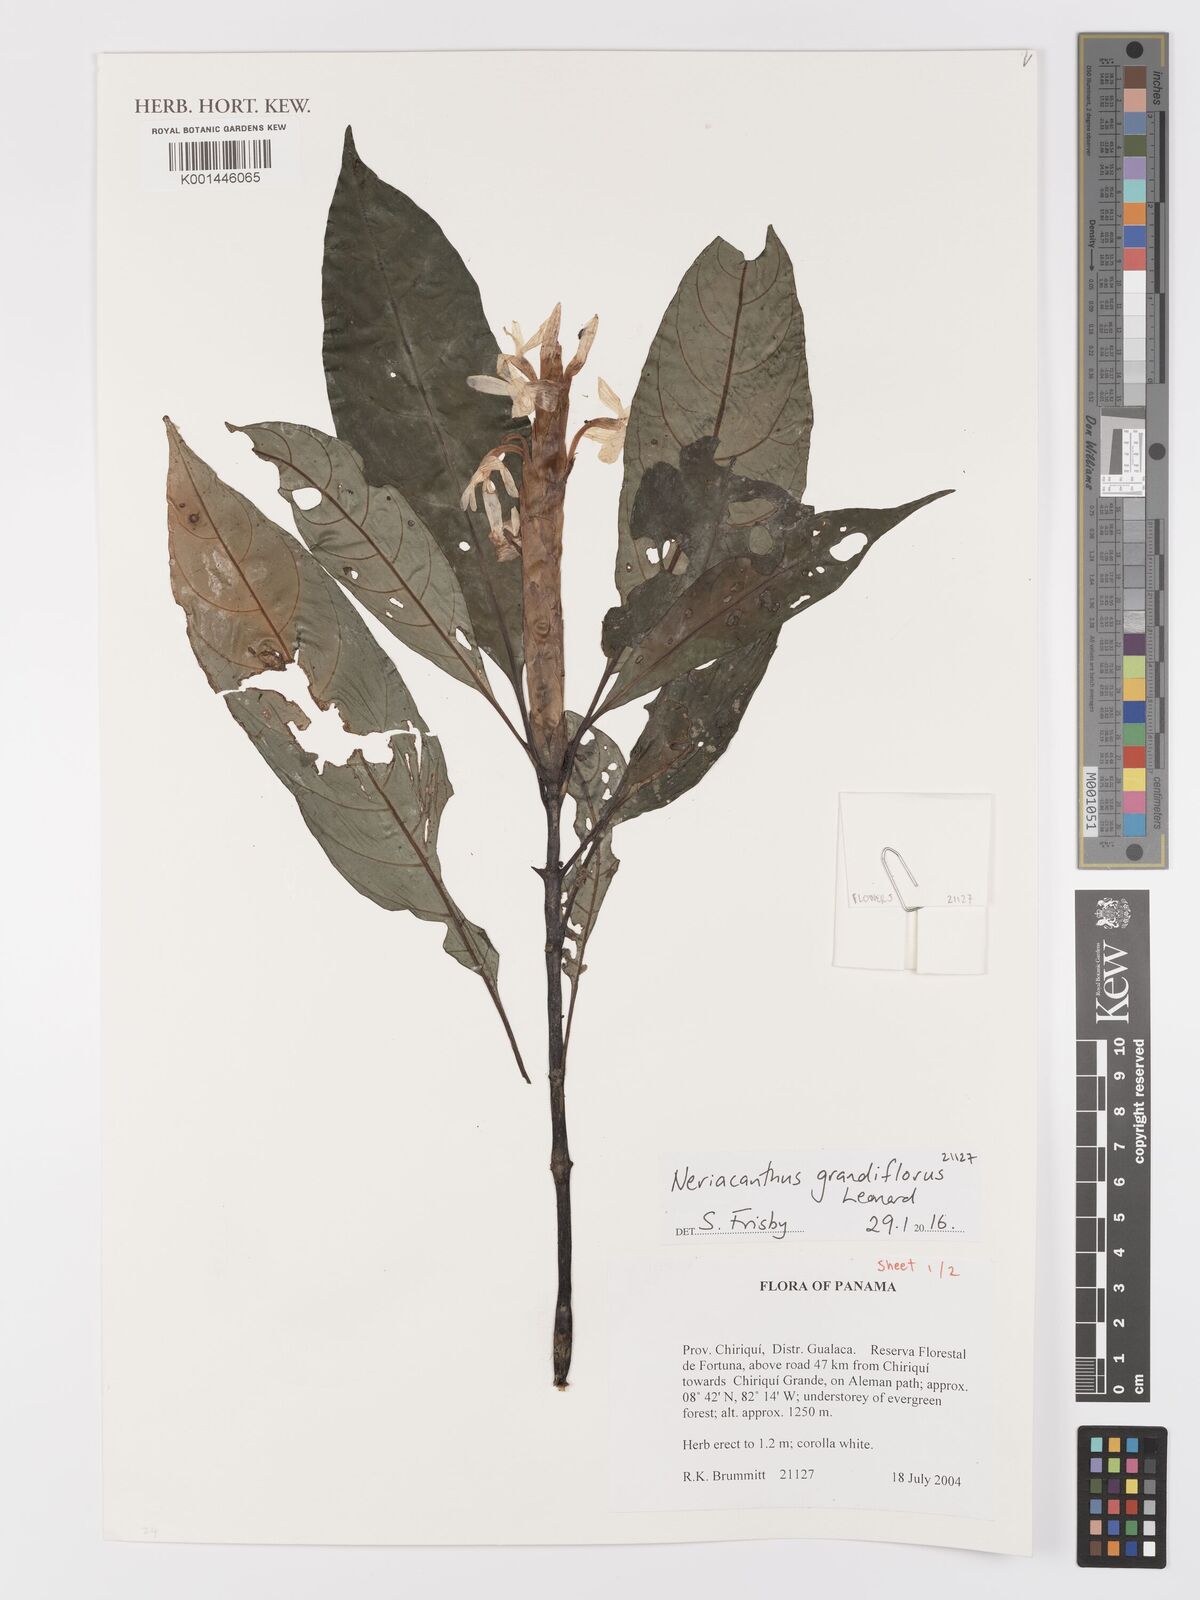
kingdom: Plantae
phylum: Tracheophyta
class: Magnoliopsida
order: Lamiales
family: Acanthaceae
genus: Neriacanthus
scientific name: Neriacanthus grandiflorus
